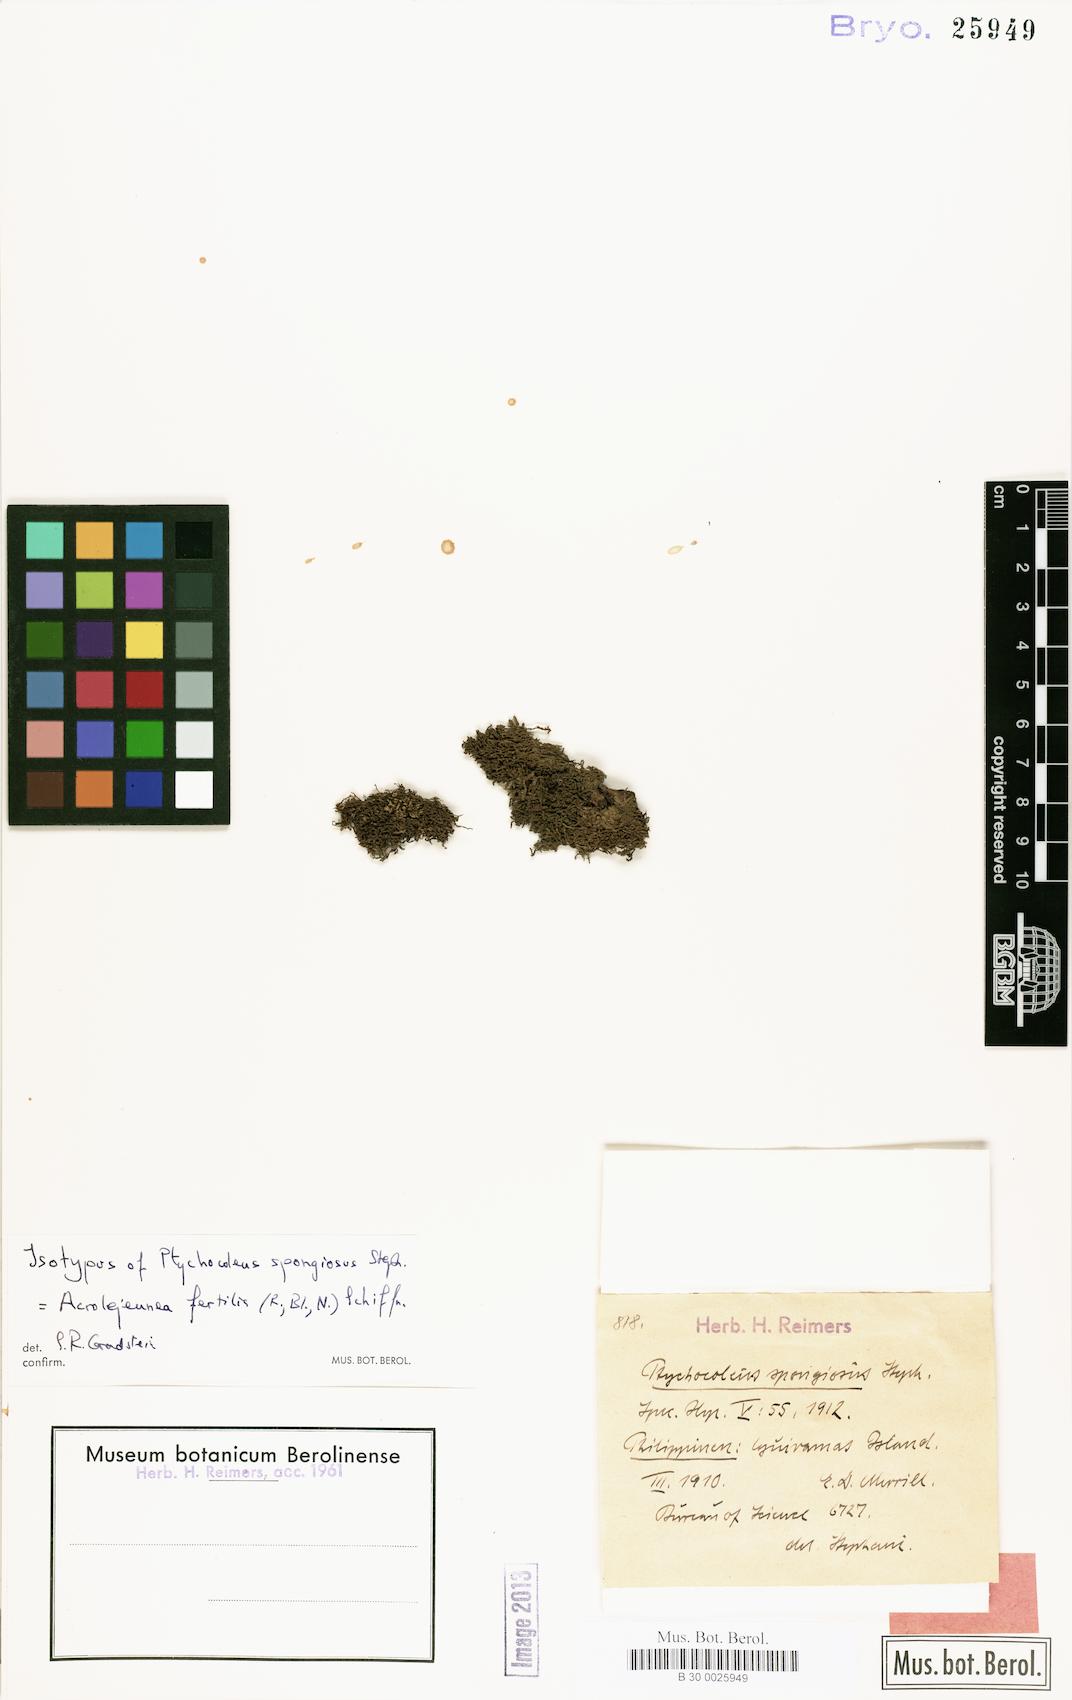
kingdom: Plantae
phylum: Marchantiophyta
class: Jungermanniopsida
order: Porellales
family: Lejeuneaceae
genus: Acrolejeunea
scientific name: Acrolejeunea fertilis
